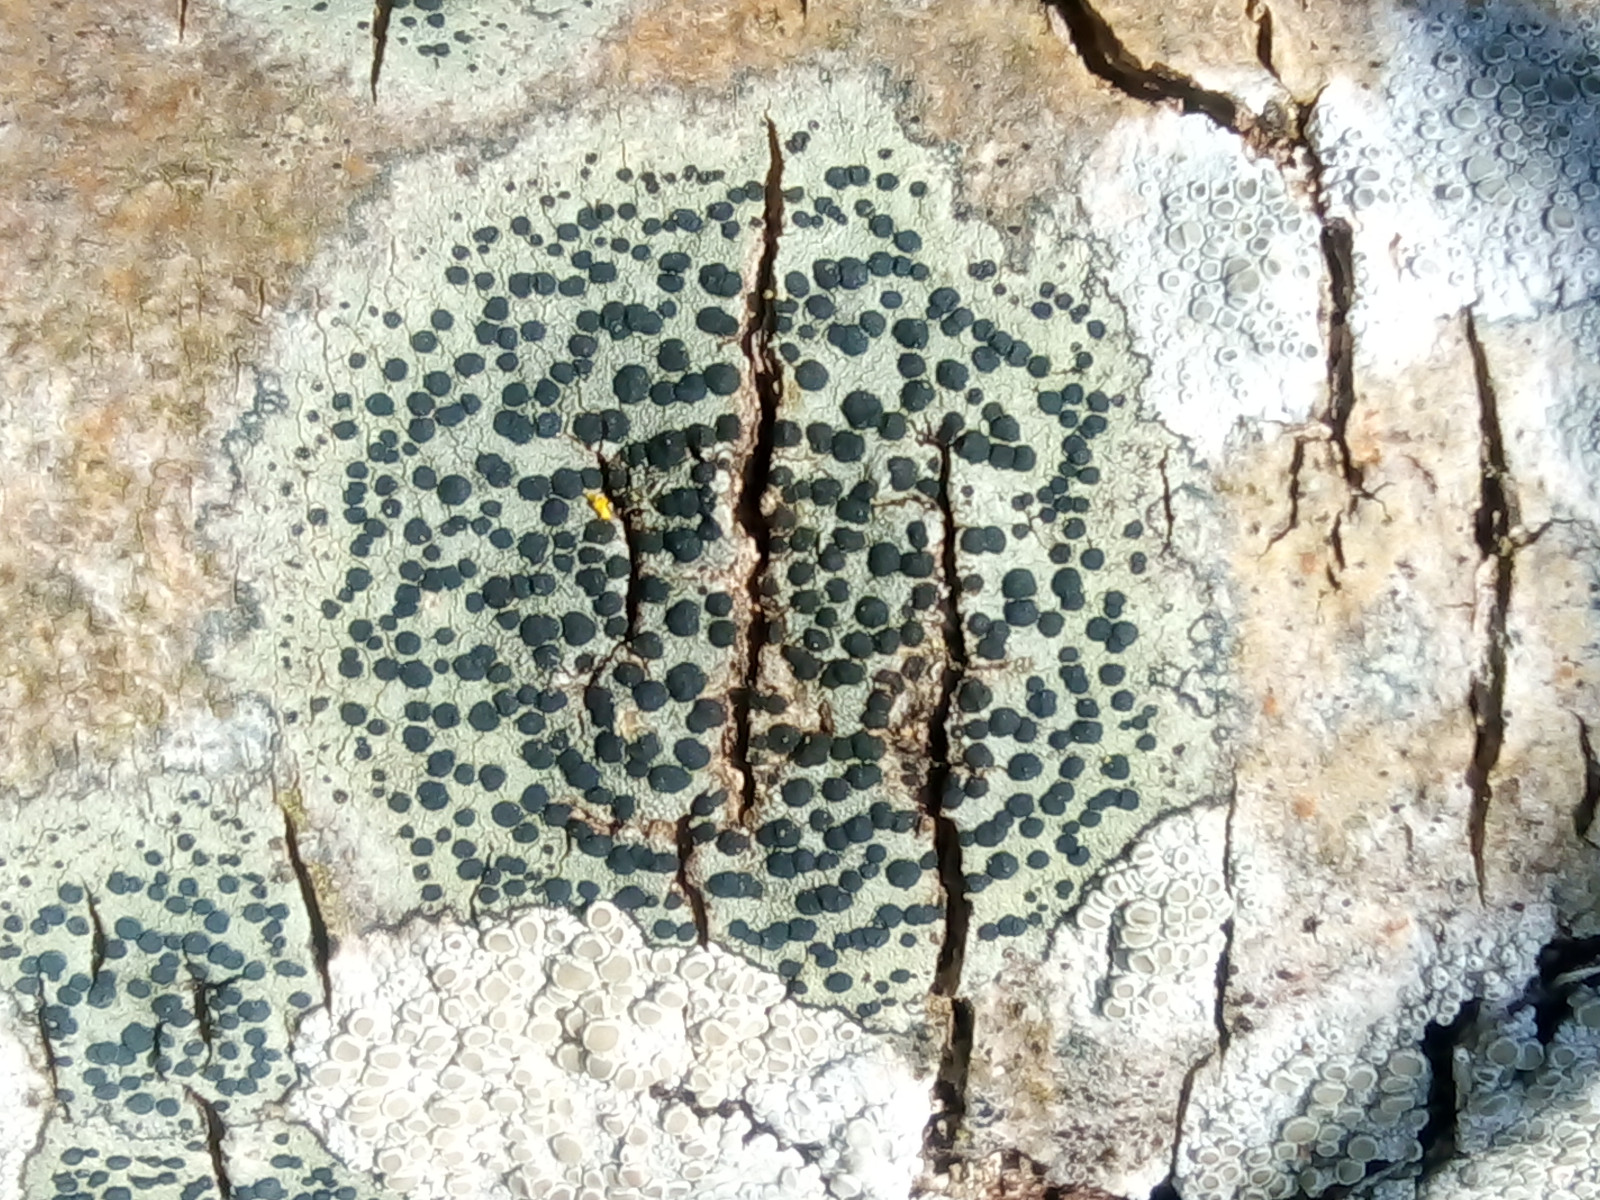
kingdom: Fungi
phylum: Ascomycota
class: Lecanoromycetes
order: Lecanorales
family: Lecanoraceae
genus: Lecidella
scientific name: Lecidella elaeochroma
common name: grågrøn skivelav
